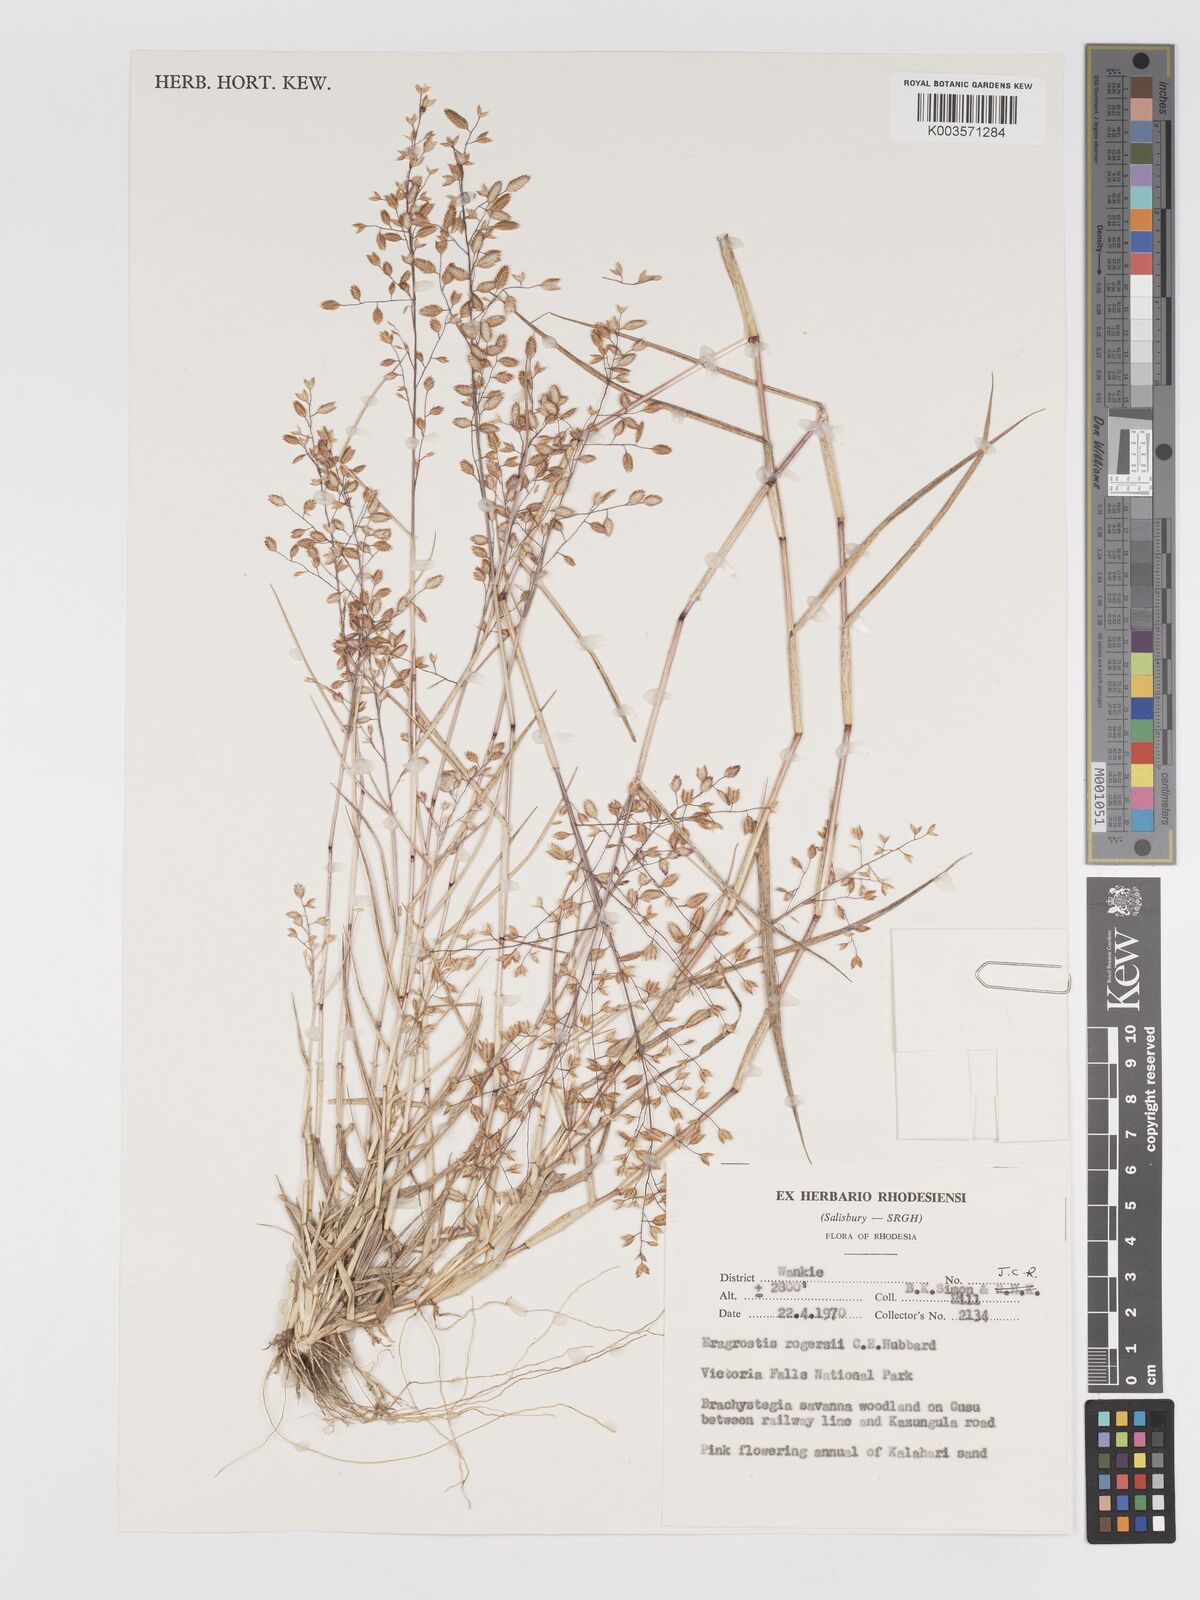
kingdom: Plantae
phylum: Tracheophyta
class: Liliopsida
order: Poales
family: Poaceae
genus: Eragrostis
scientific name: Eragrostis rogersii
